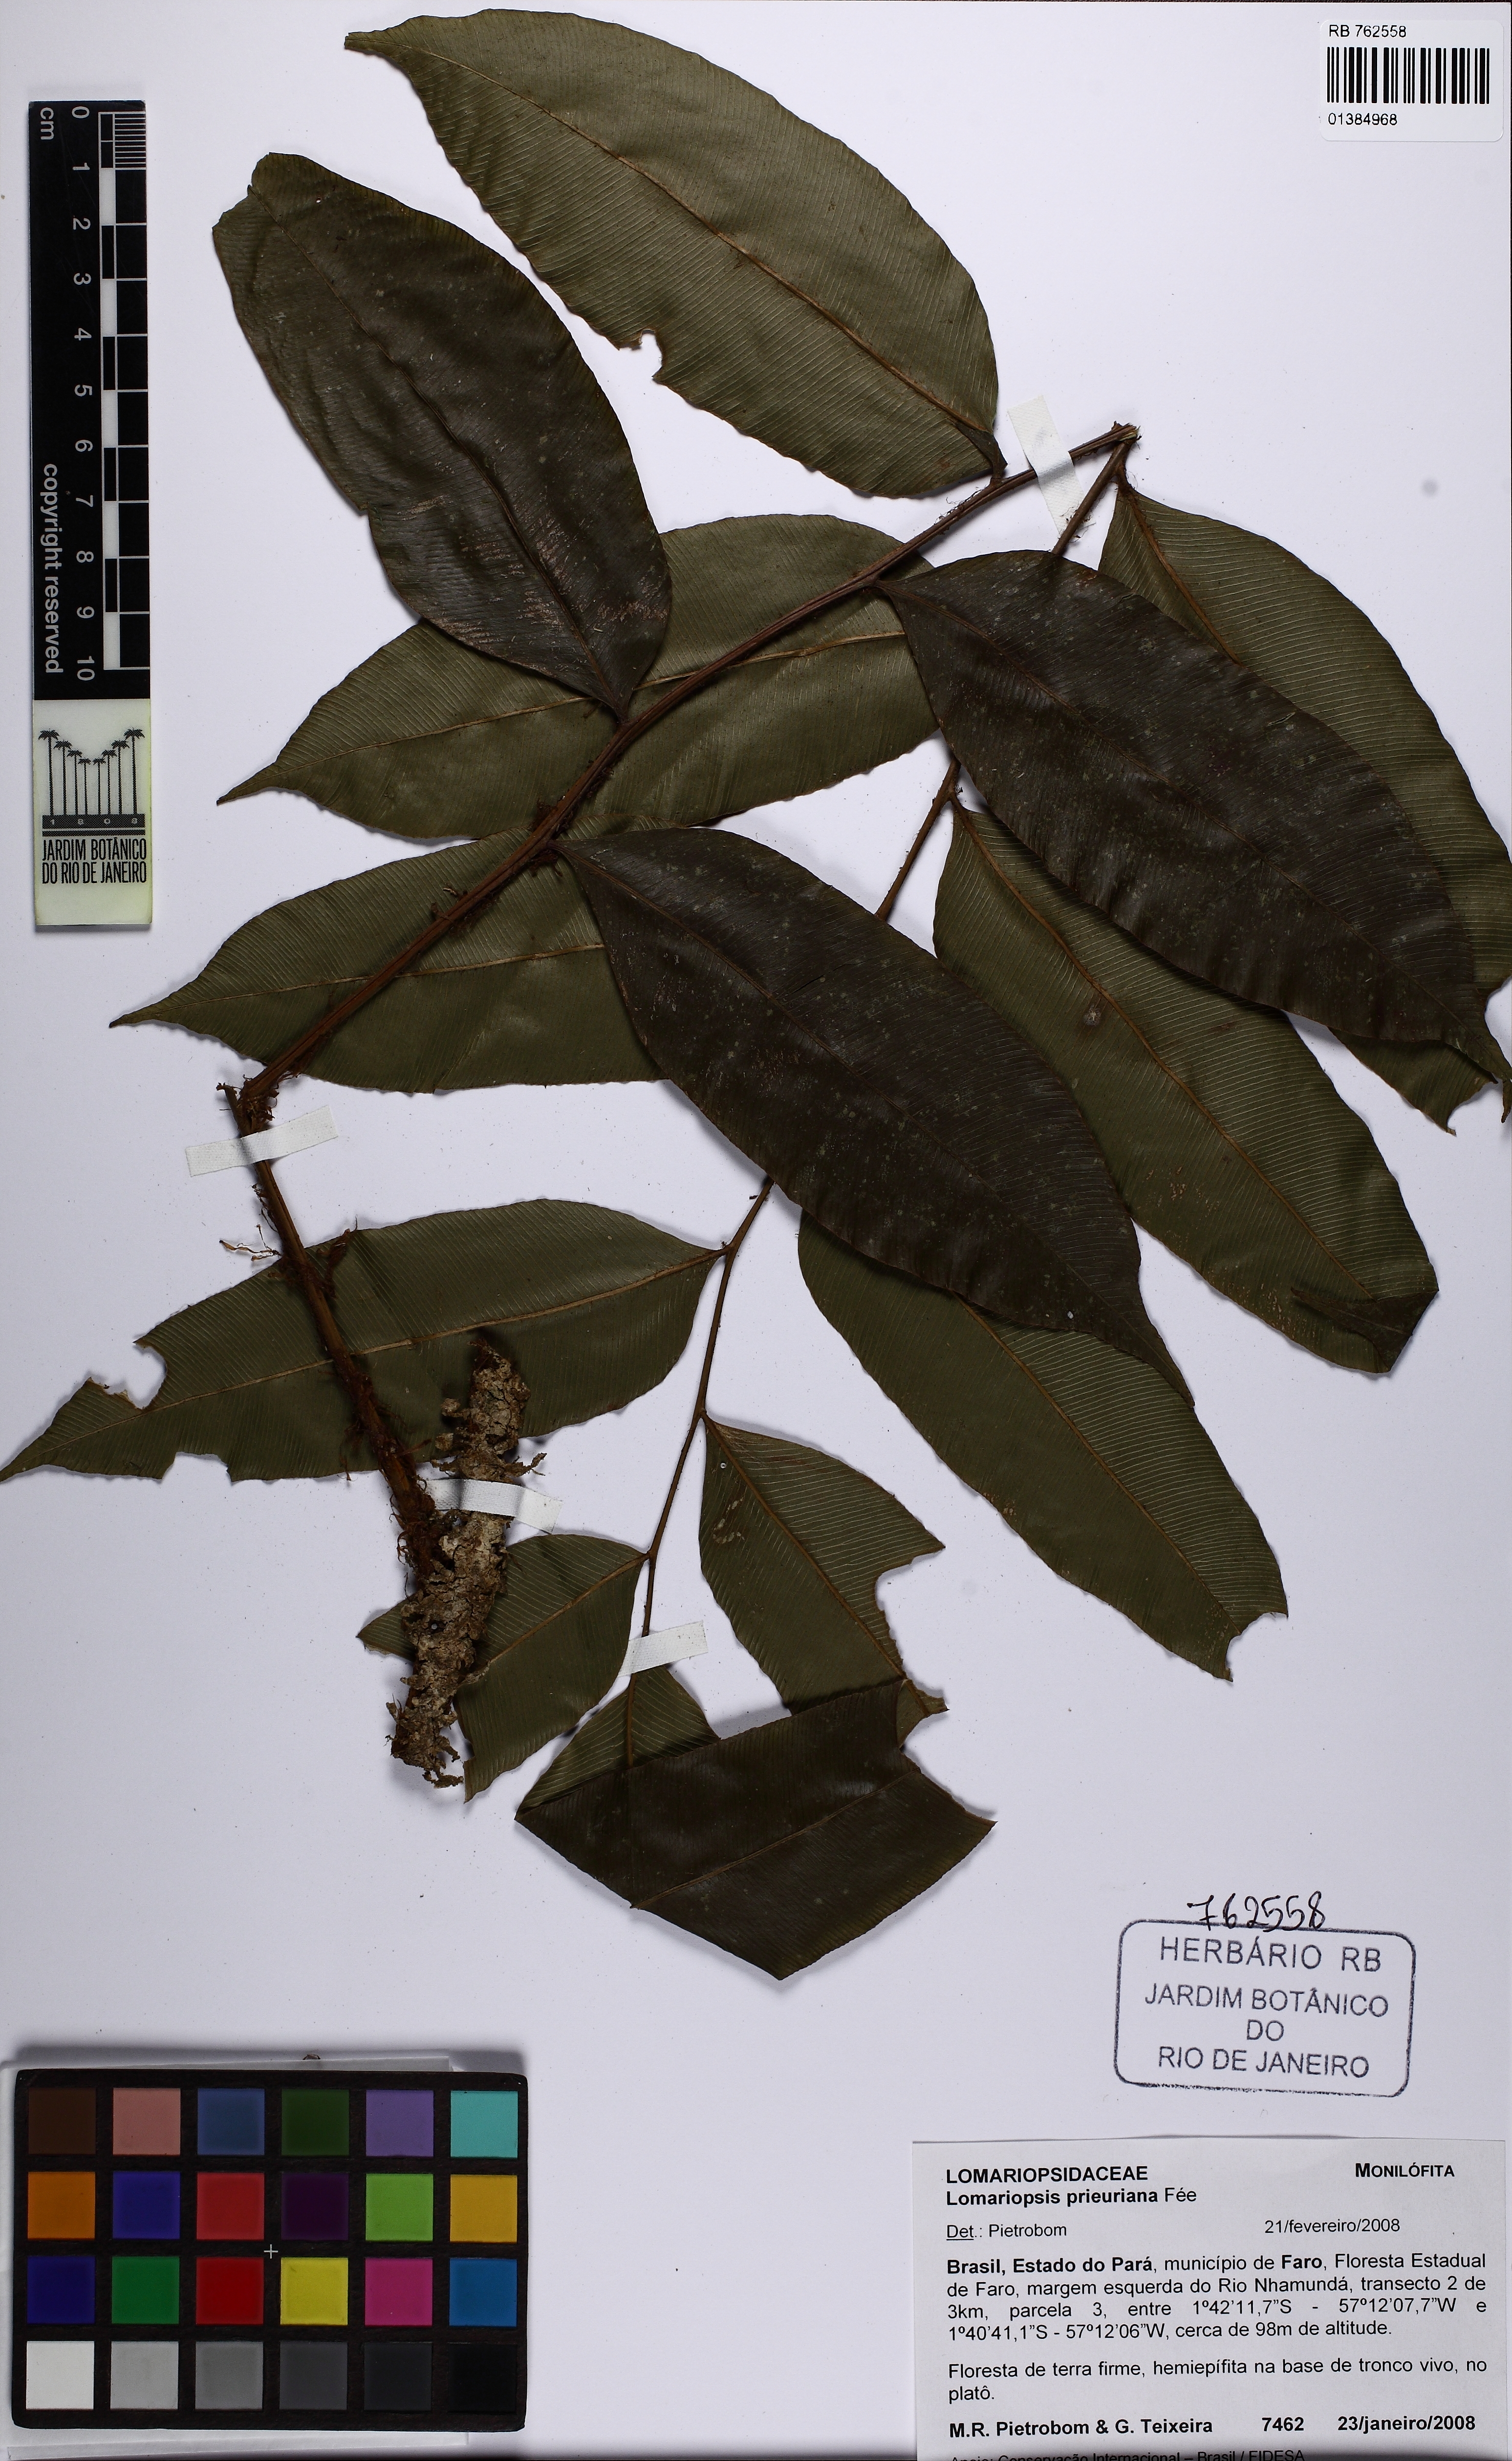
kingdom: Plantae
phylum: Tracheophyta
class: Polypodiopsida
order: Polypodiales
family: Lomariopsidaceae
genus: Lomariopsis
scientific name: Lomariopsis prieuriana
